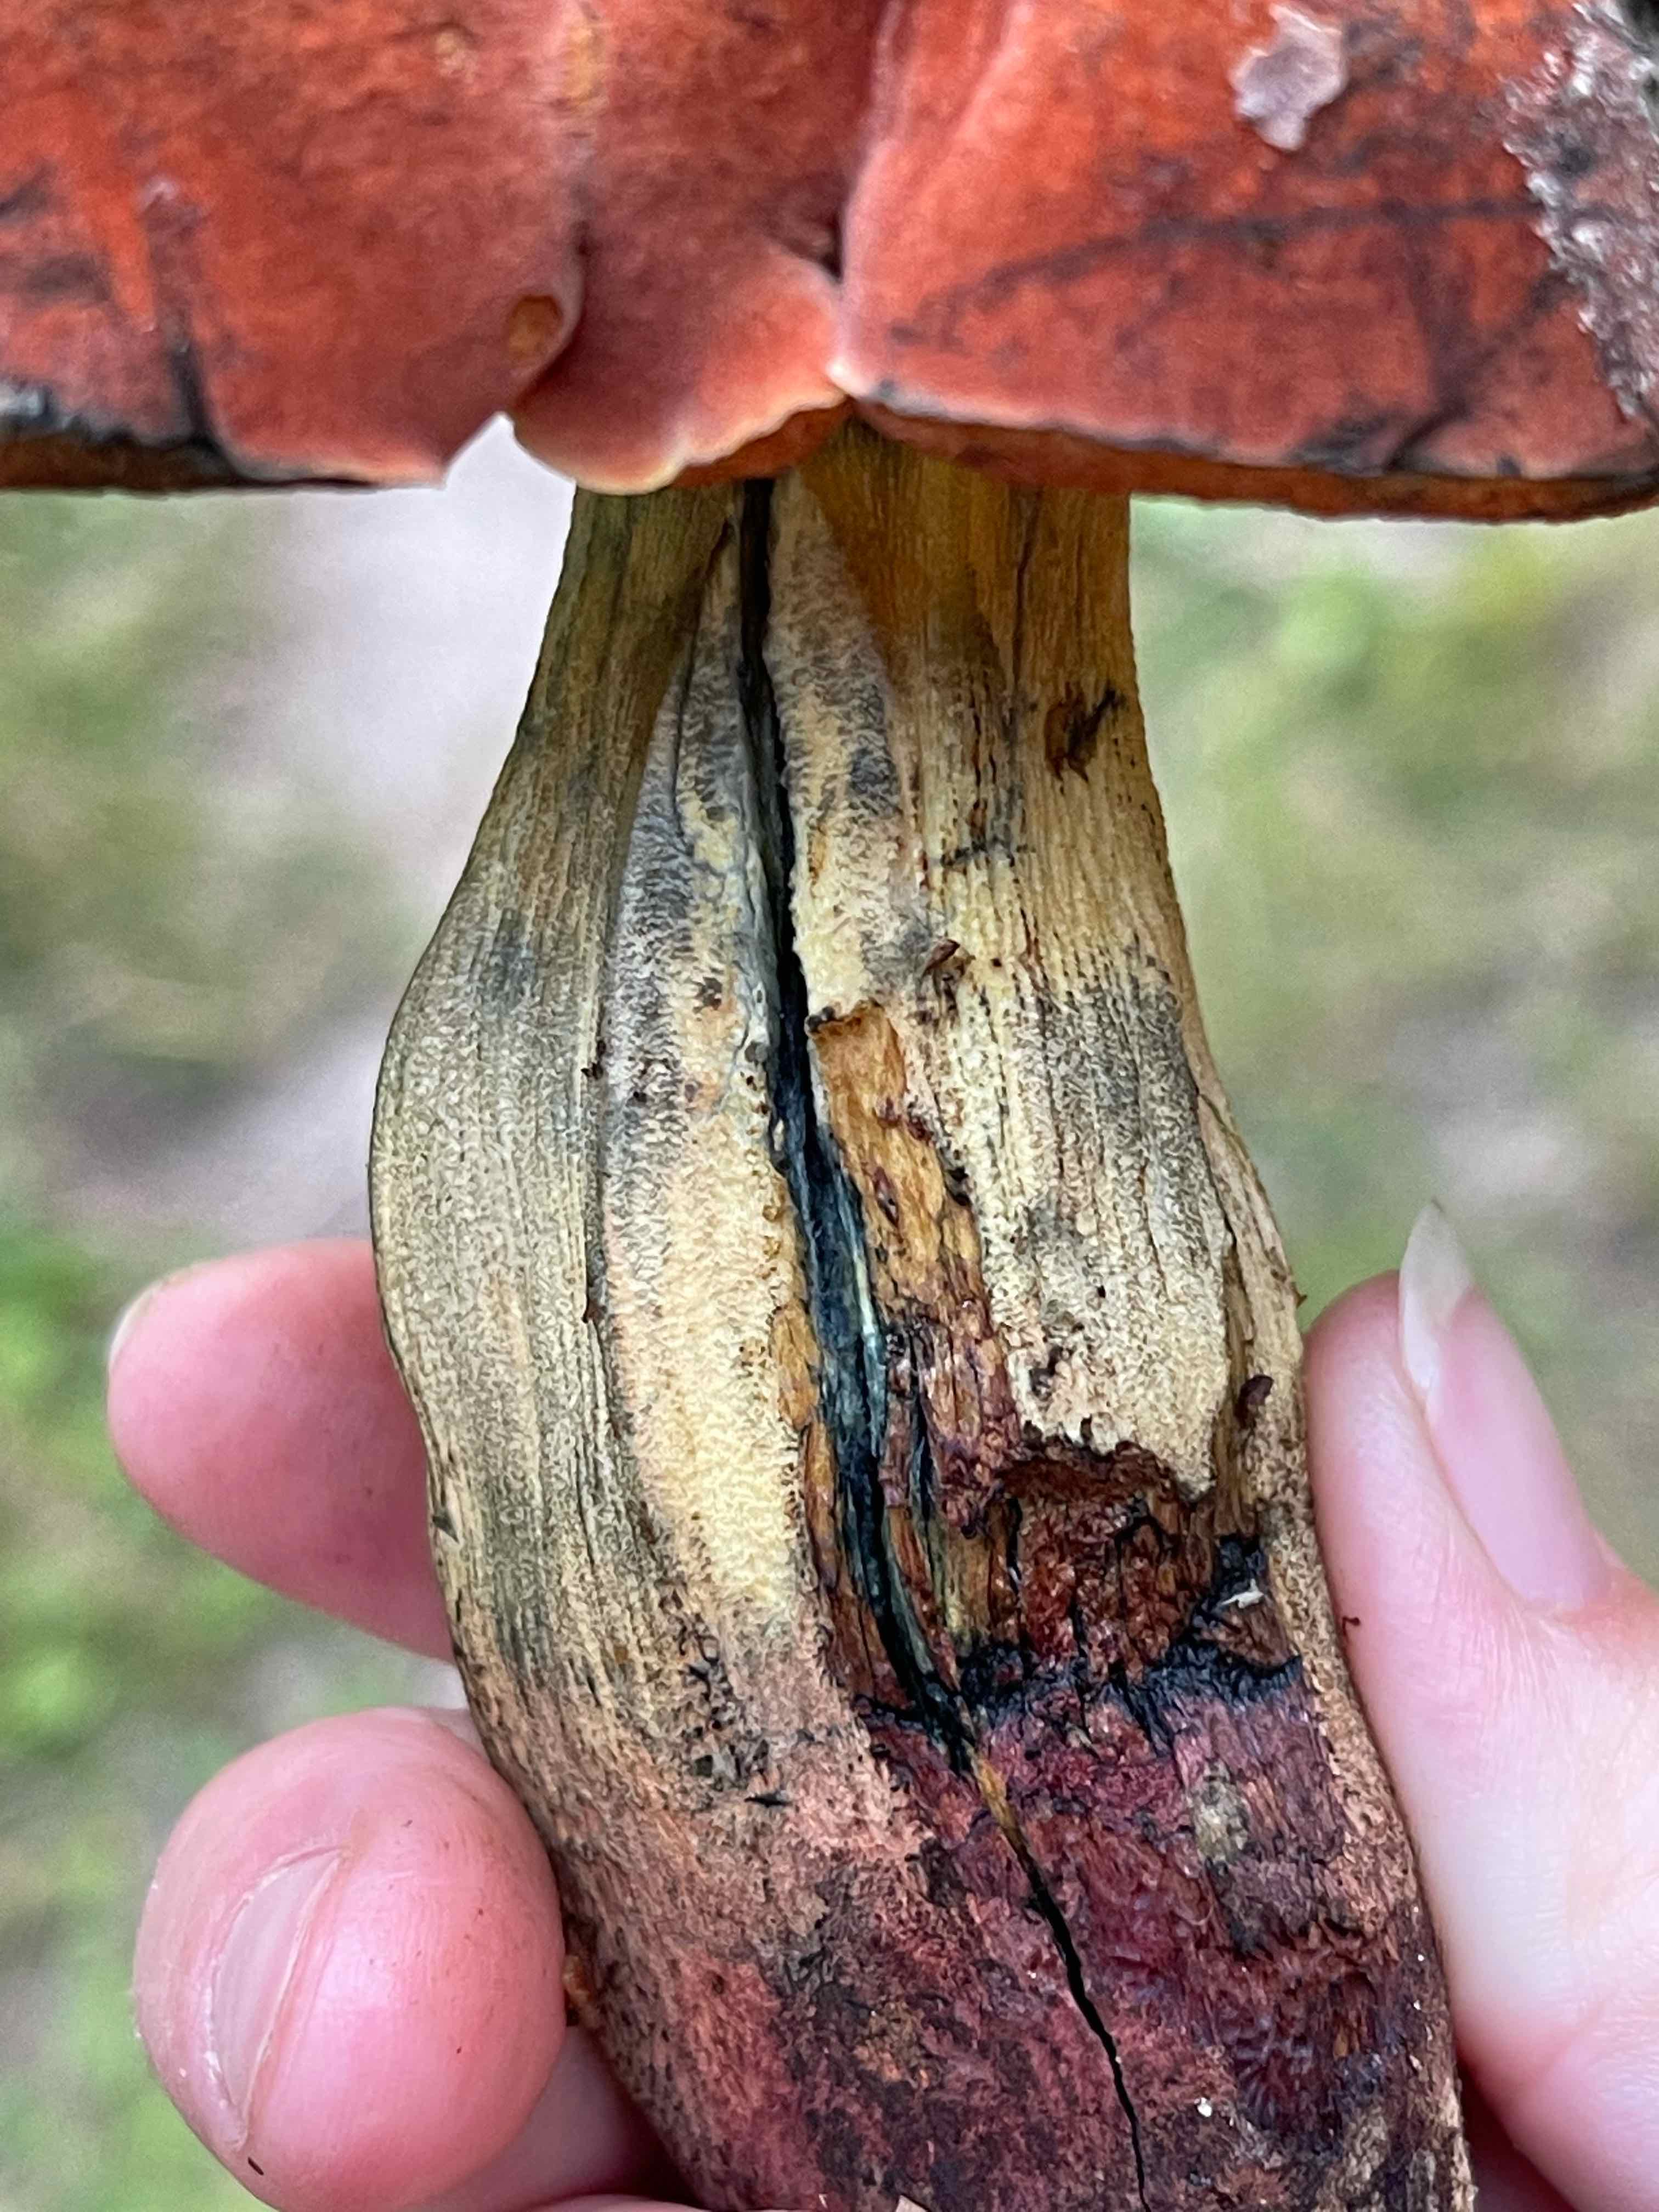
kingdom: Fungi
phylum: Basidiomycota
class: Agaricomycetes
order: Boletales
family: Boletaceae
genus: Suillellus
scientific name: Suillellus queletii
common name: glatstokket indigorørhat
